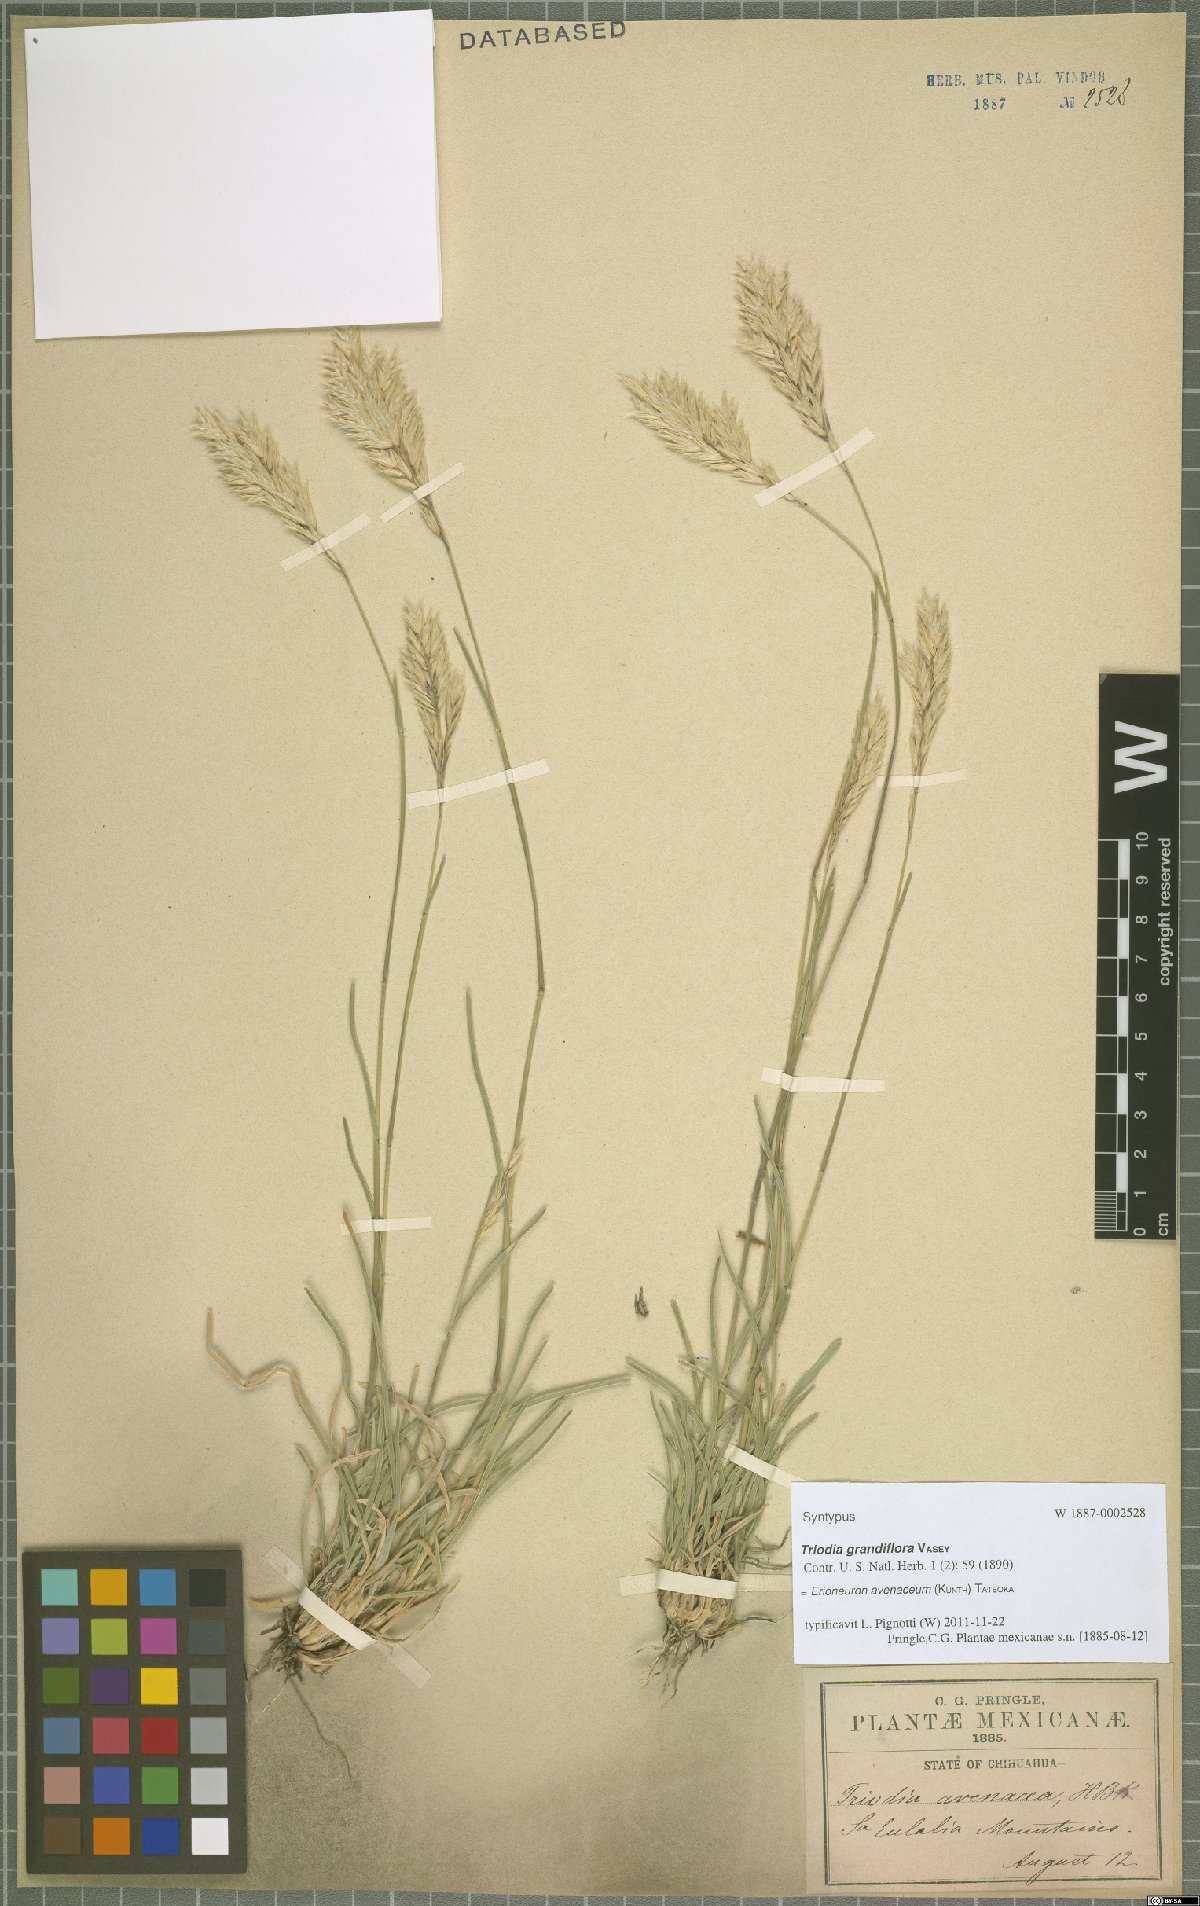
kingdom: Plantae
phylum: Tracheophyta
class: Liliopsida
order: Poales
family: Poaceae
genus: Erioneuron
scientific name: Erioneuron avenaceum
